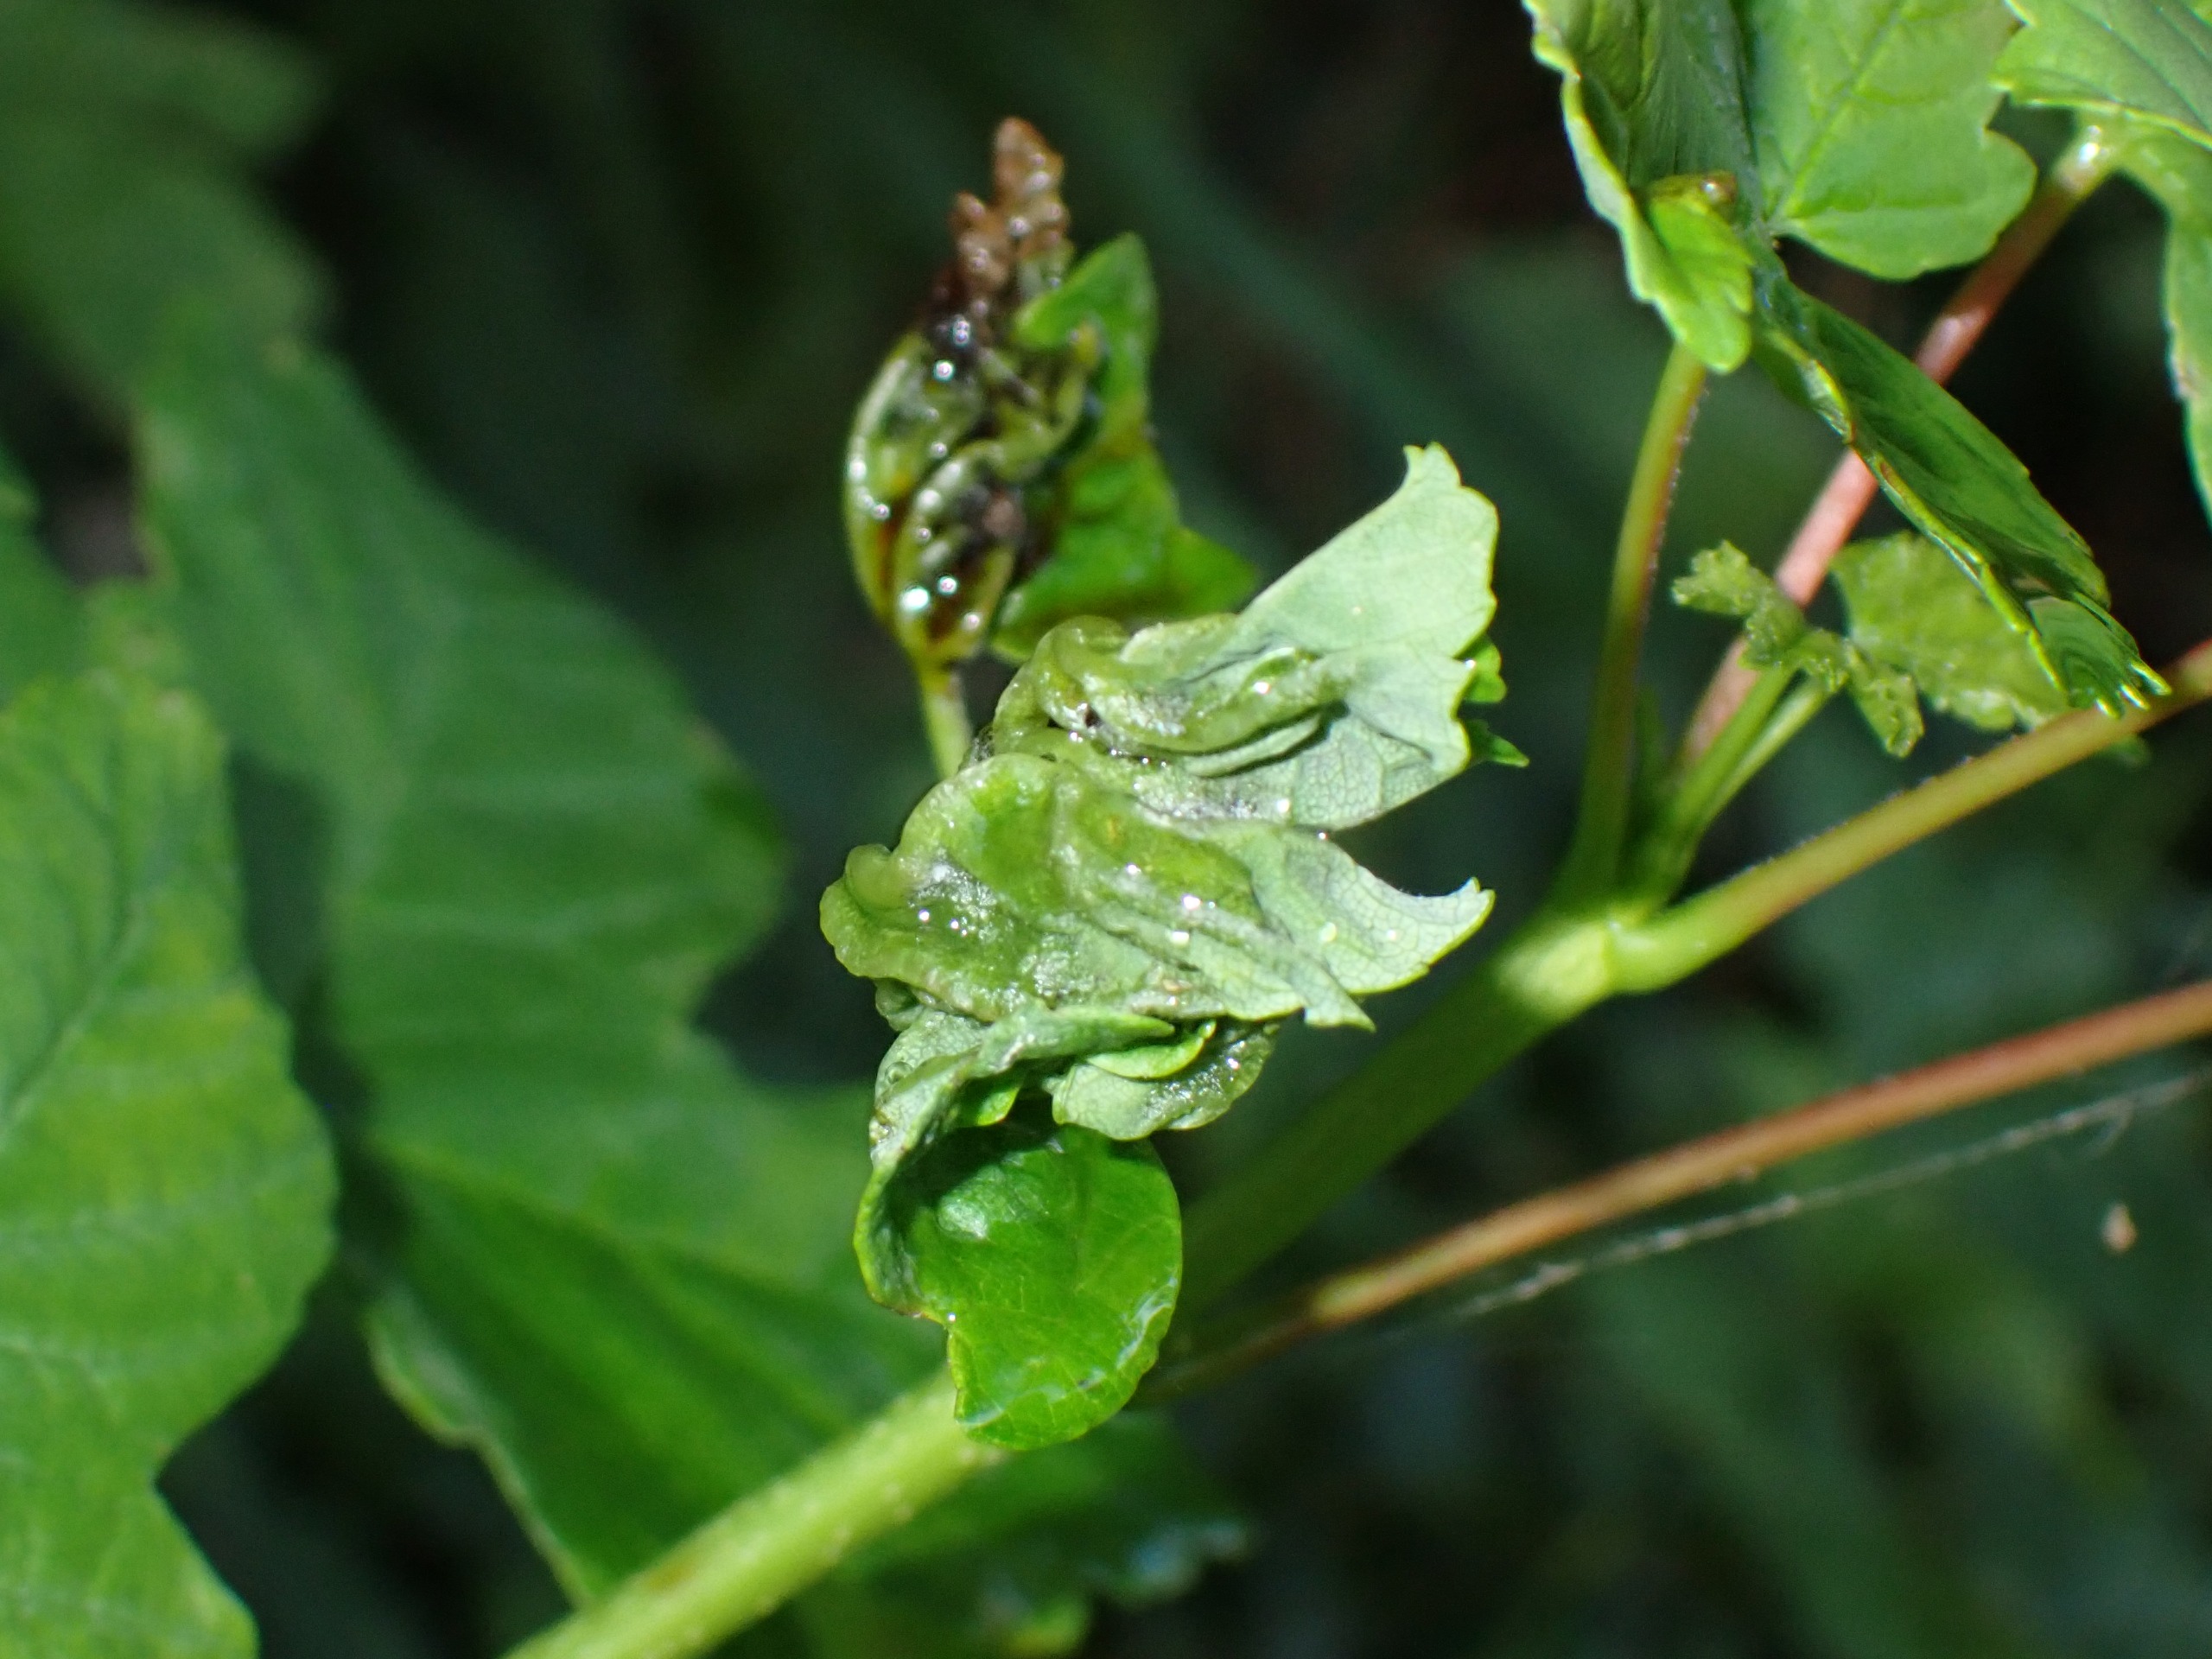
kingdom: Animalia
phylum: Arthropoda
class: Insecta
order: Diptera
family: Cecidomyiidae
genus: Dasineura
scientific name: Dasineura irregularis
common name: Ahornkrusegalmyg
